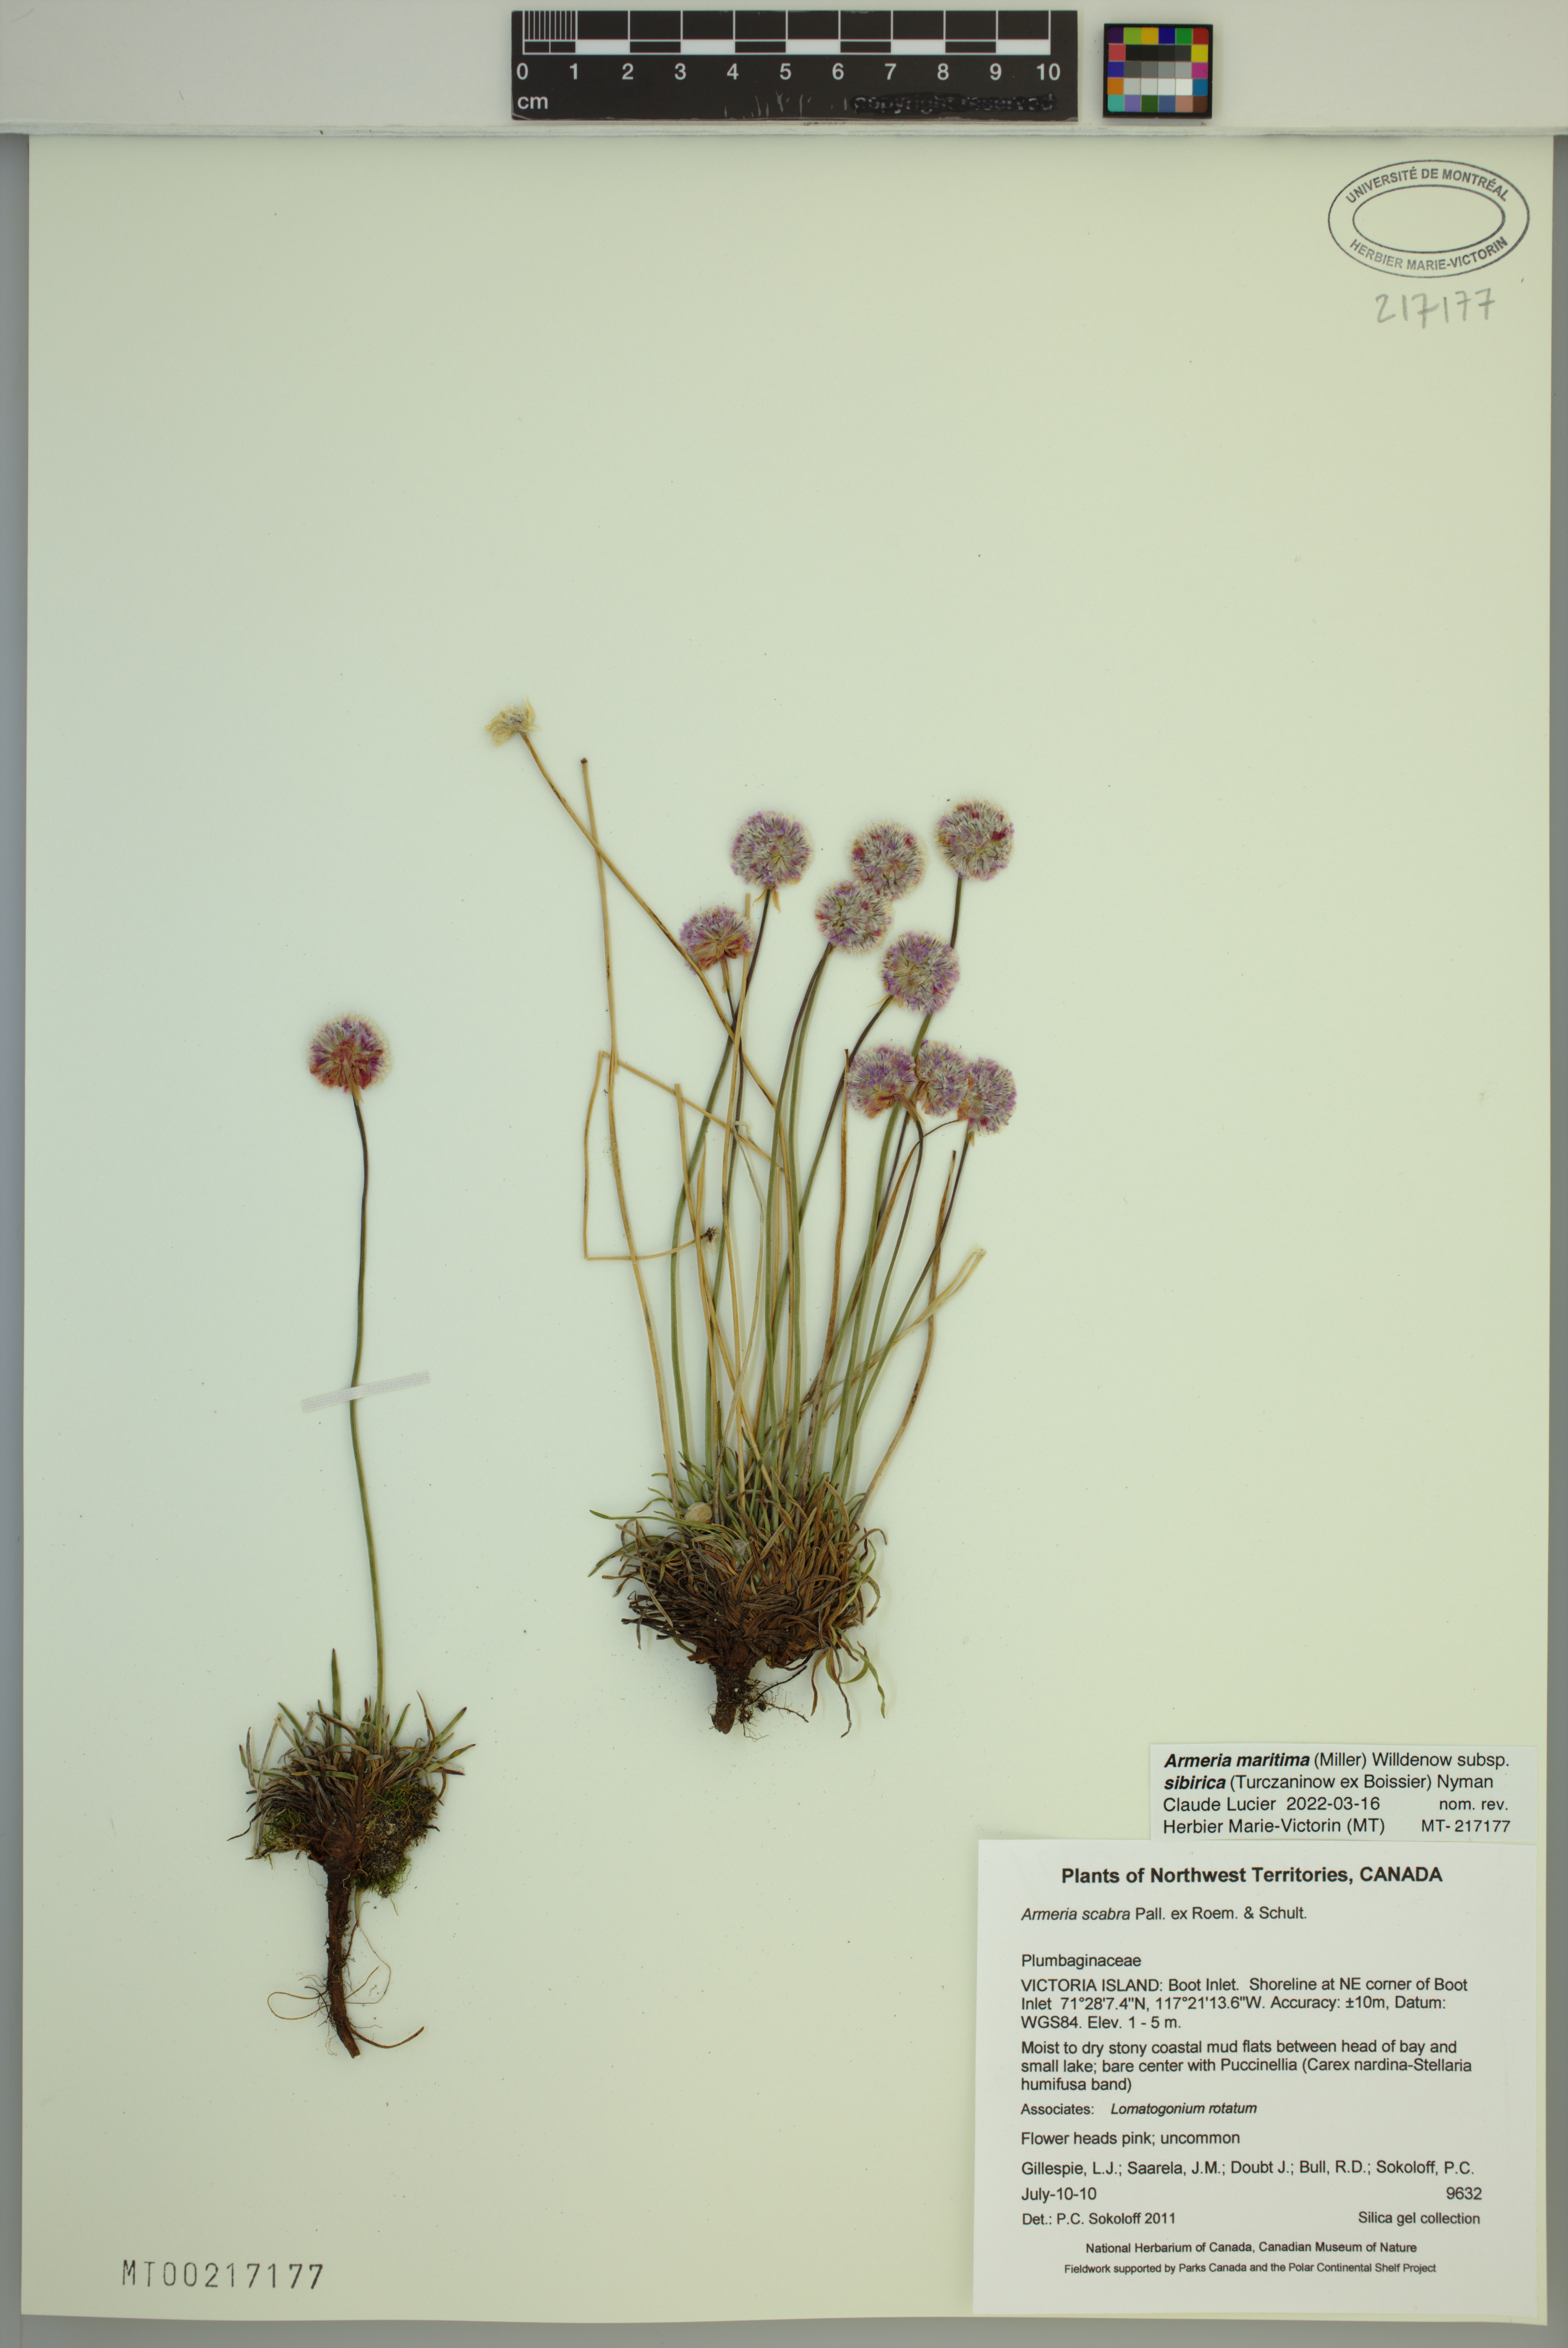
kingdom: Plantae
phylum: Tracheophyta
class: Magnoliopsida
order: Caryophyllales
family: Plumbaginaceae
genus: Armeria
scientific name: Armeria maritima
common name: Thrift
